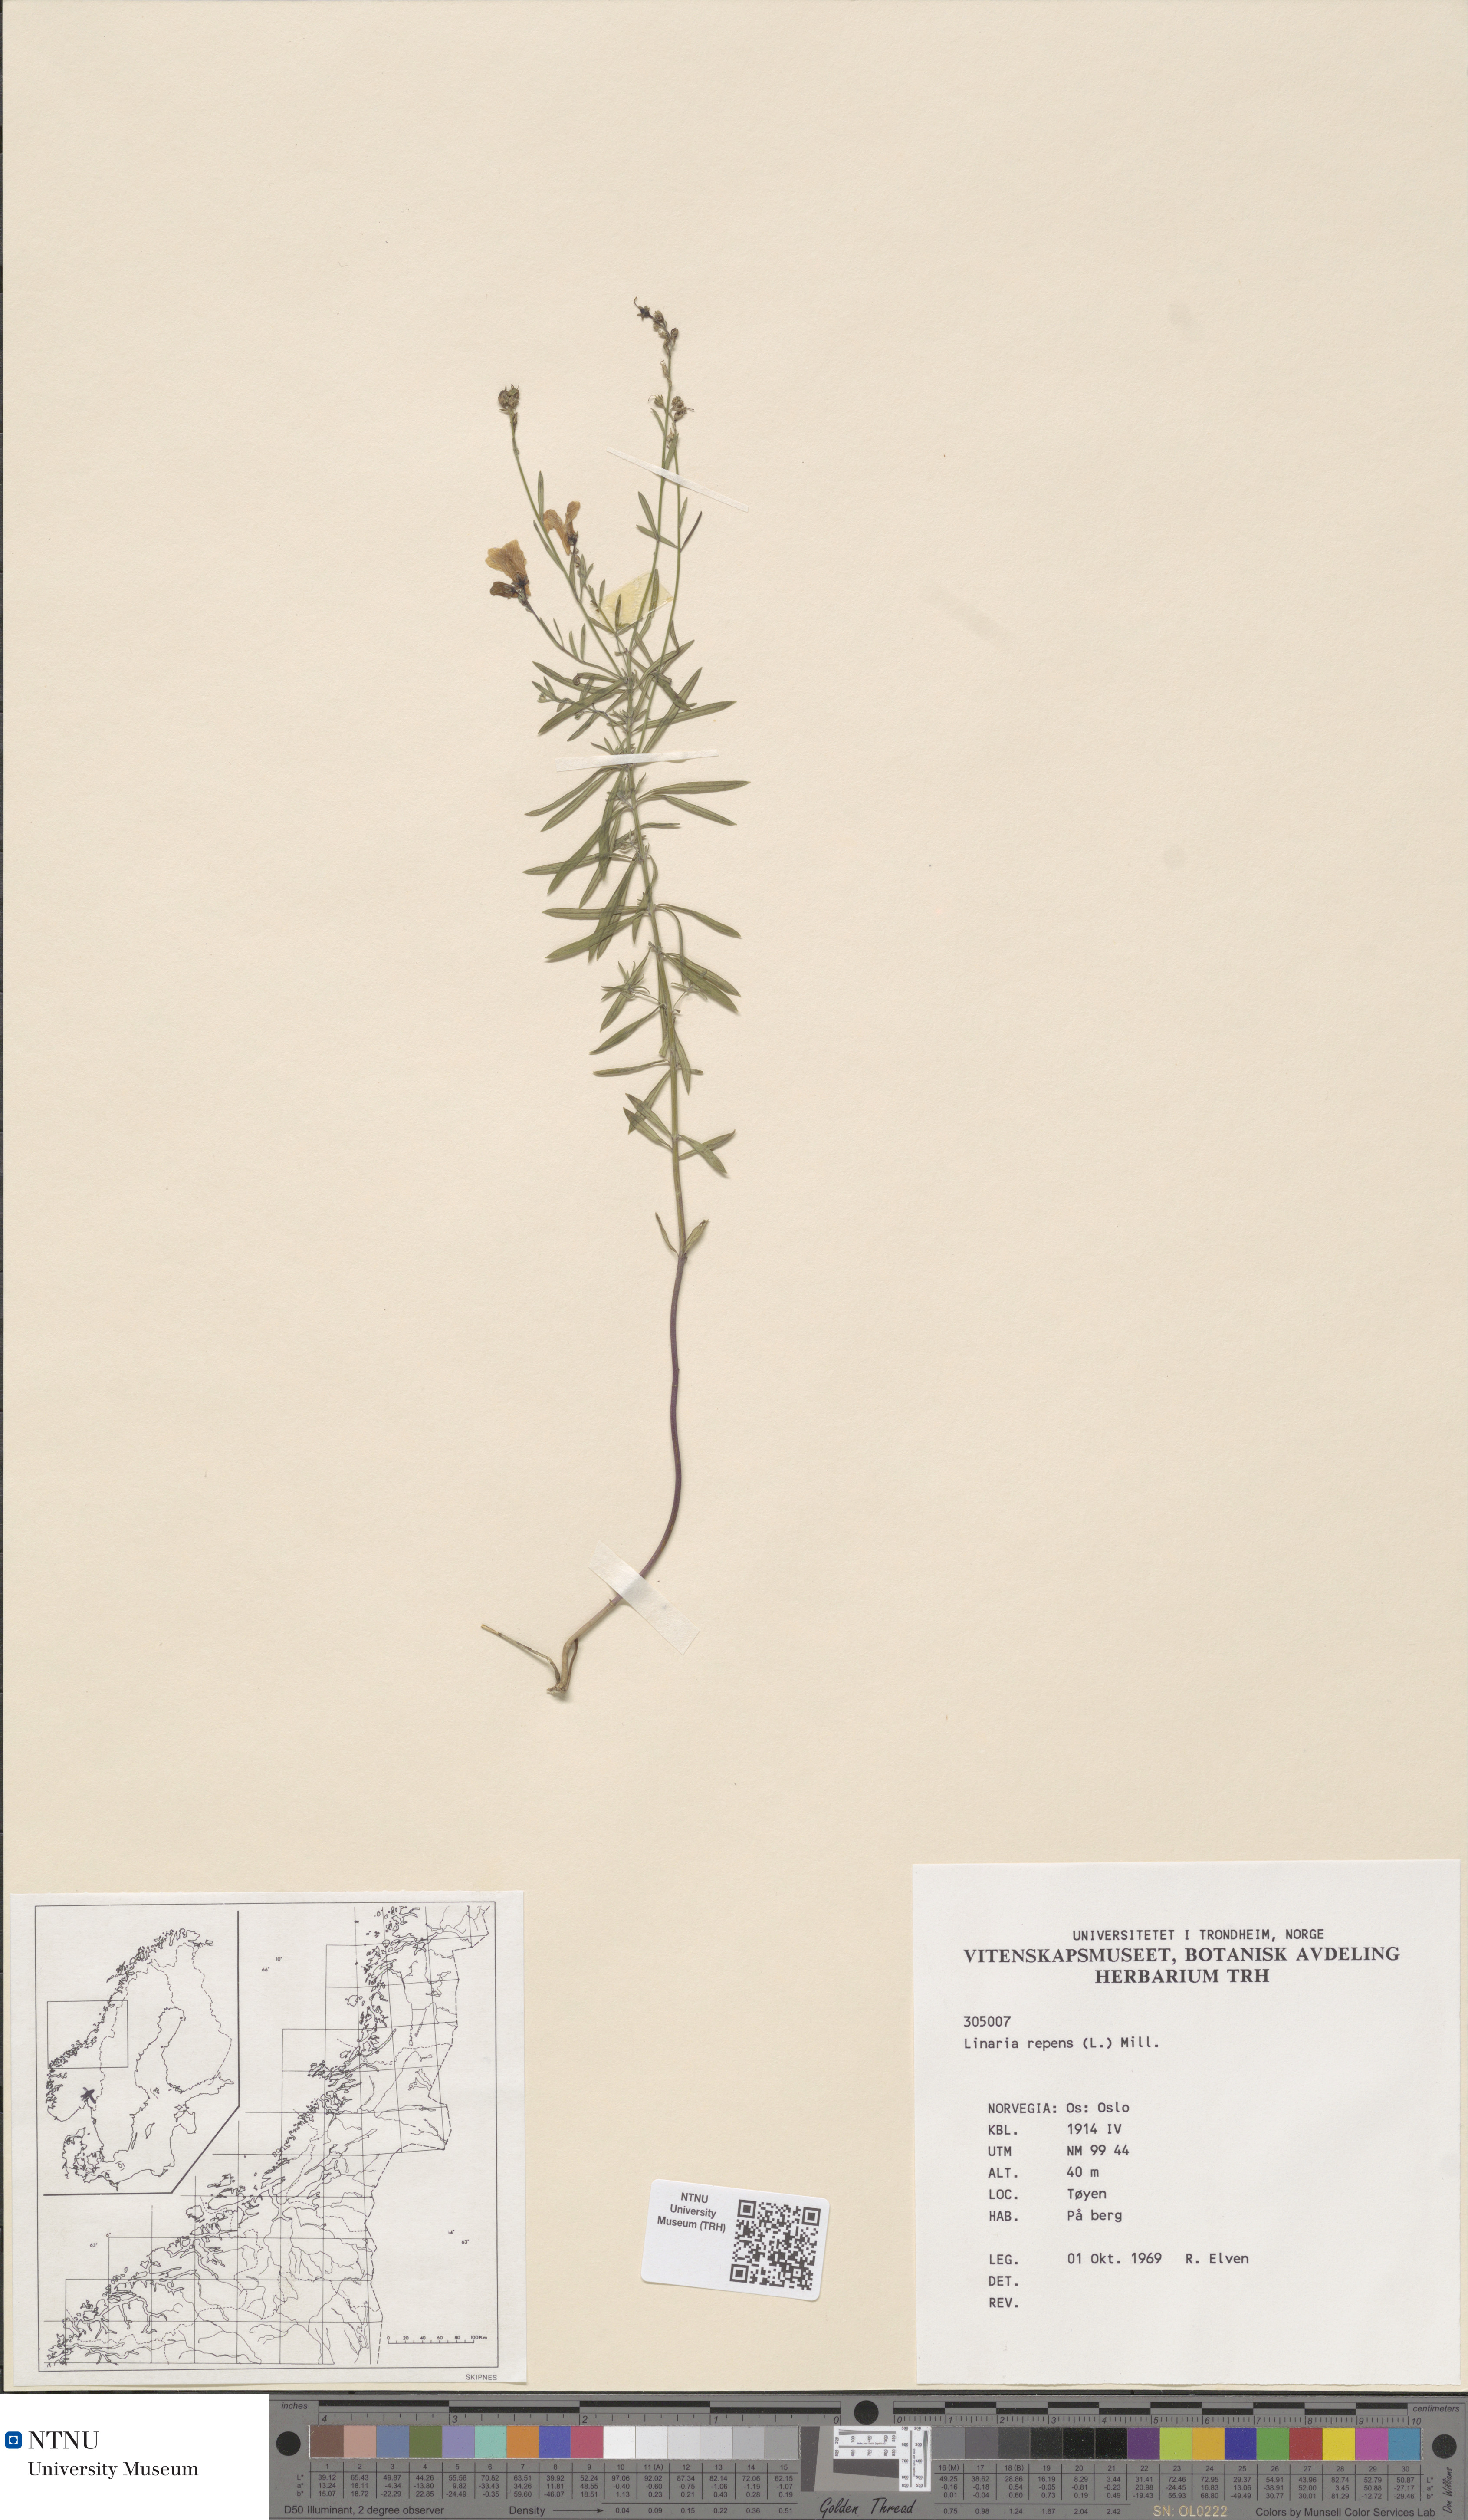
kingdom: Plantae
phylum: Tracheophyta
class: Magnoliopsida
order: Lamiales
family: Plantaginaceae
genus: Linaria
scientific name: Linaria repens
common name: Pale toadflax
